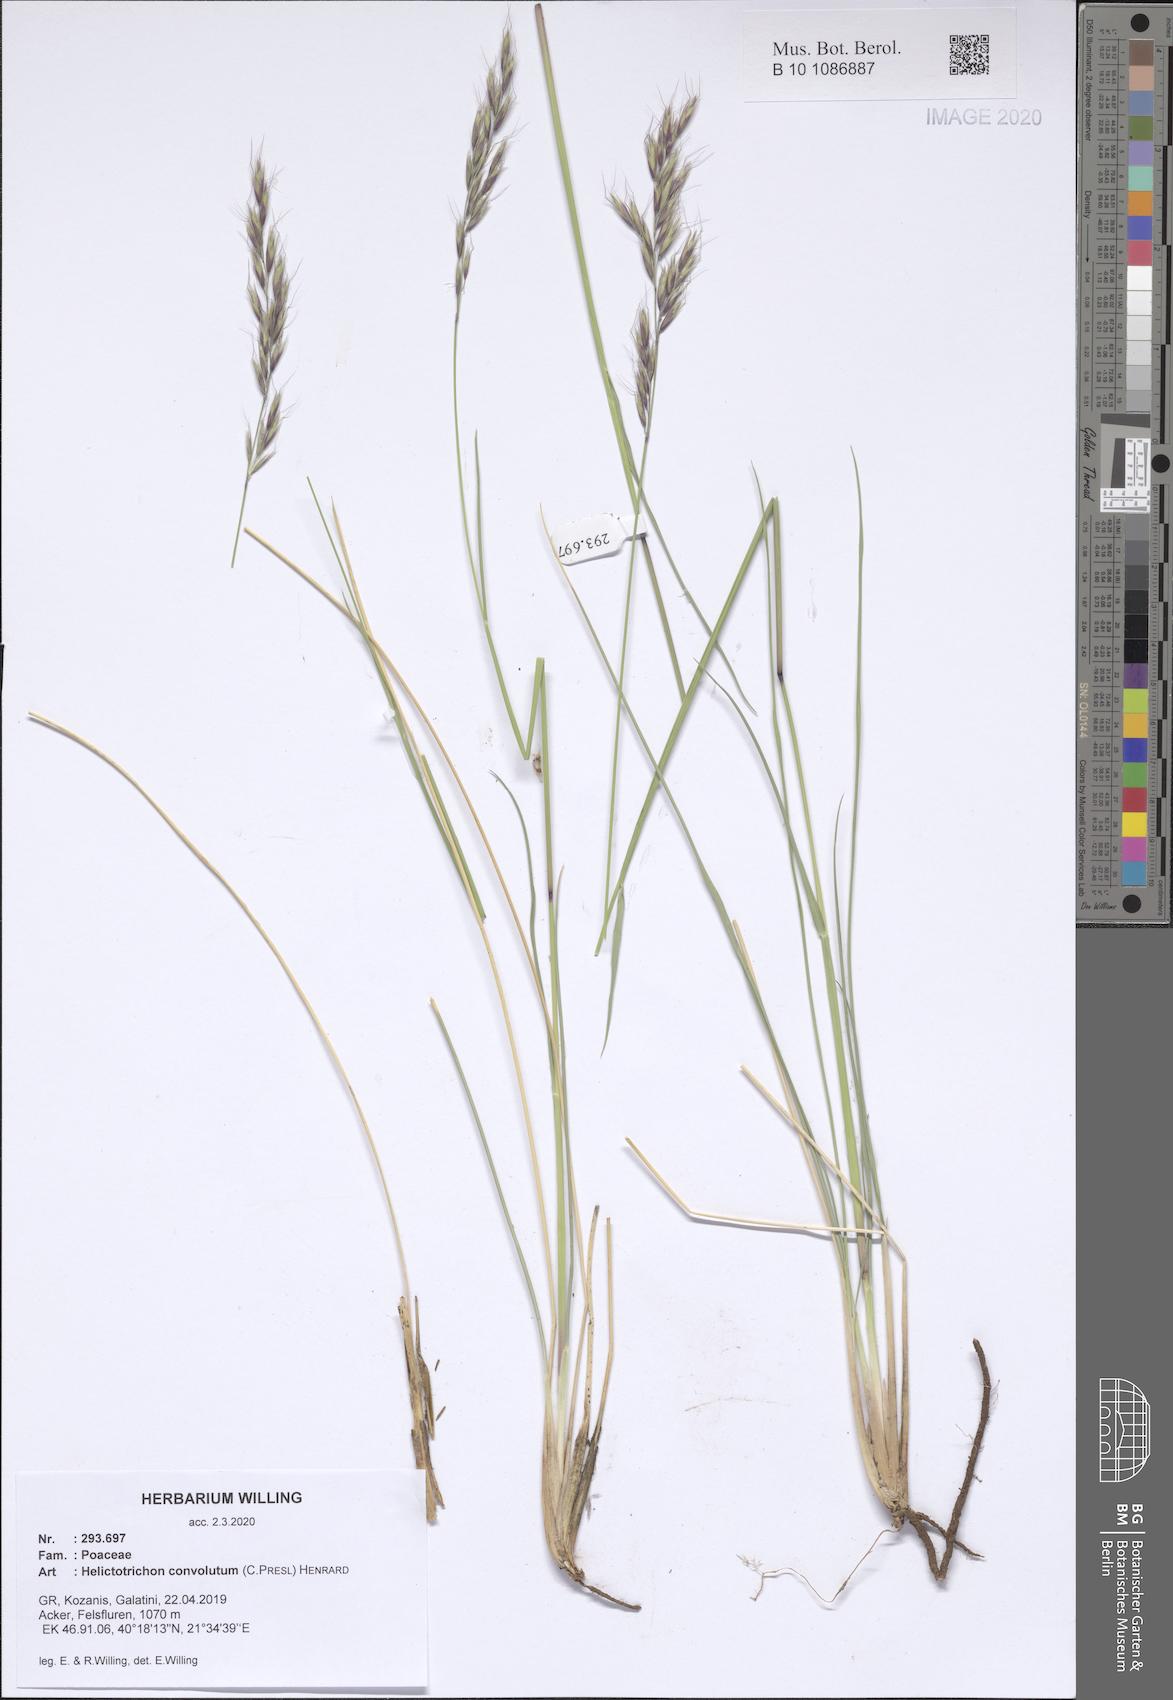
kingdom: Plantae
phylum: Tracheophyta
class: Liliopsida
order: Poales
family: Poaceae
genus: Helictotrichon
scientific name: Helictotrichon convolutum
